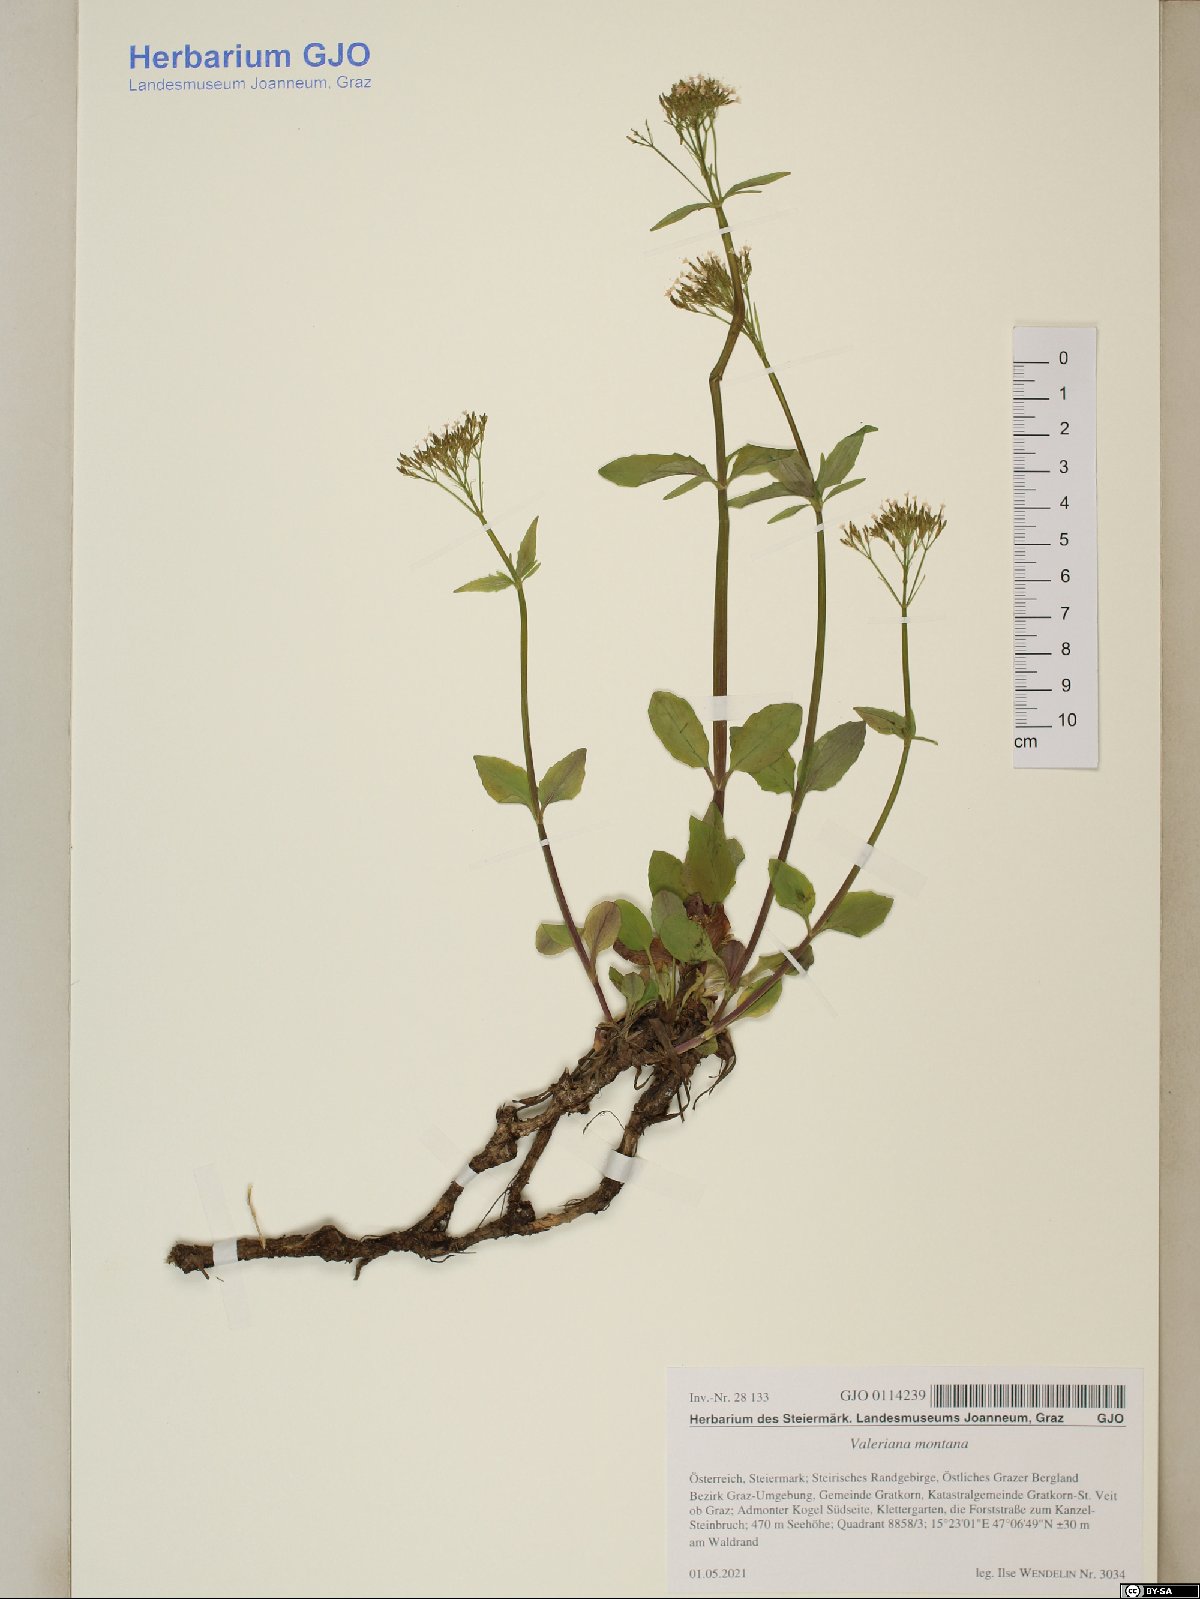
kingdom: Plantae
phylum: Tracheophyta
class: Magnoliopsida
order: Dipsacales
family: Caprifoliaceae
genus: Valeriana
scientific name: Valeriana montana
